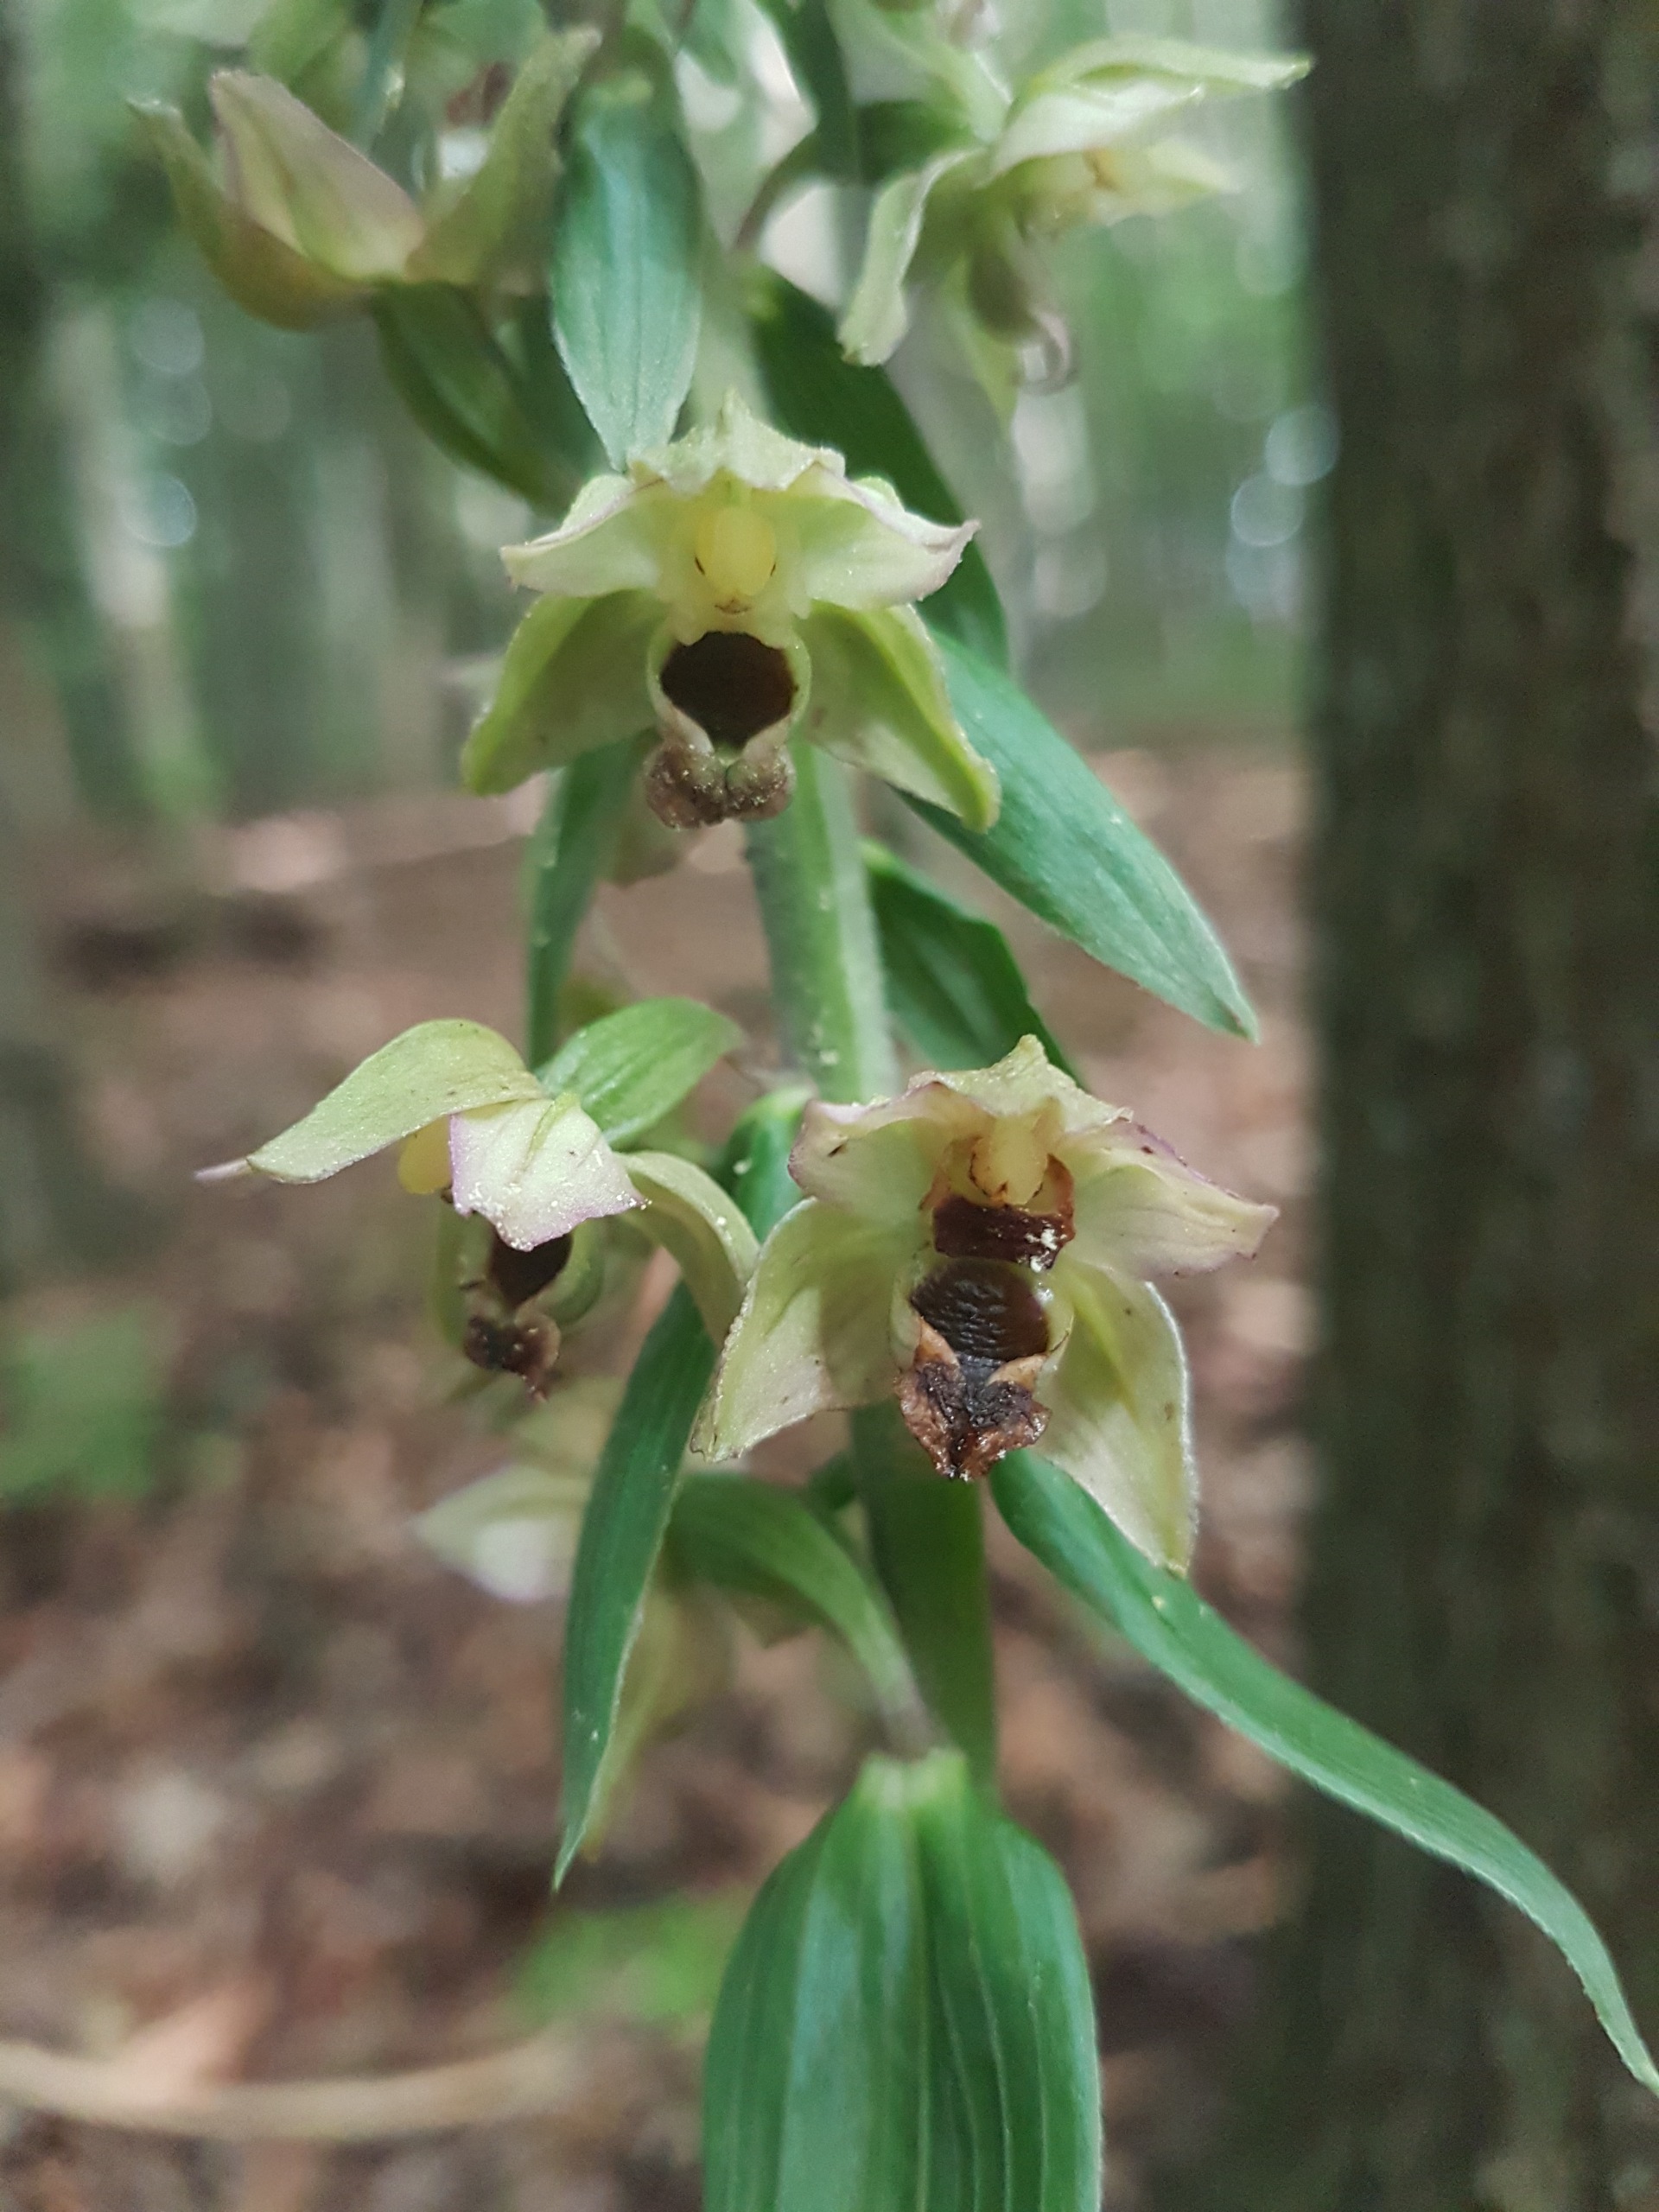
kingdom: Plantae
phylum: Tracheophyta
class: Liliopsida
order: Asparagales
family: Orchidaceae
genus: Epipactis
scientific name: Epipactis helleborine
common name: Skov-hullæbe
